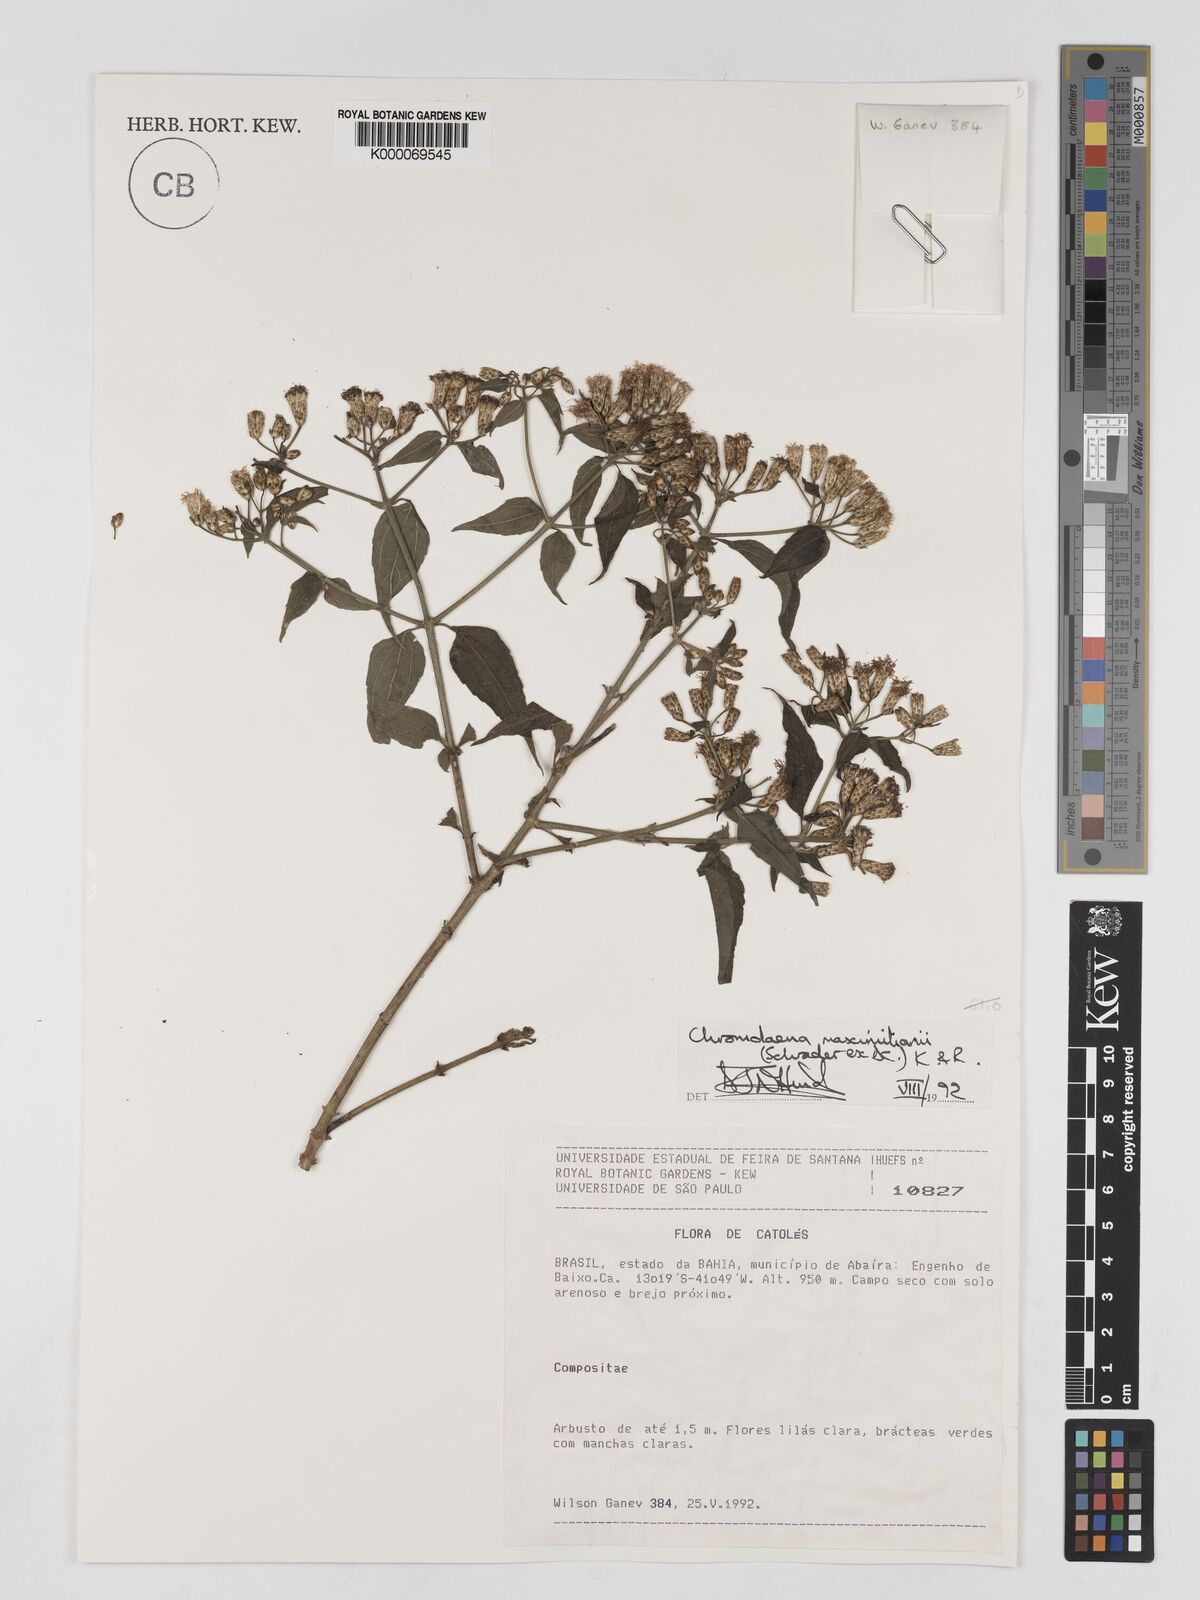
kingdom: Plantae
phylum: Tracheophyta
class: Magnoliopsida
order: Asterales
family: Asteraceae
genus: Chromolaena
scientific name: Chromolaena laevigata
